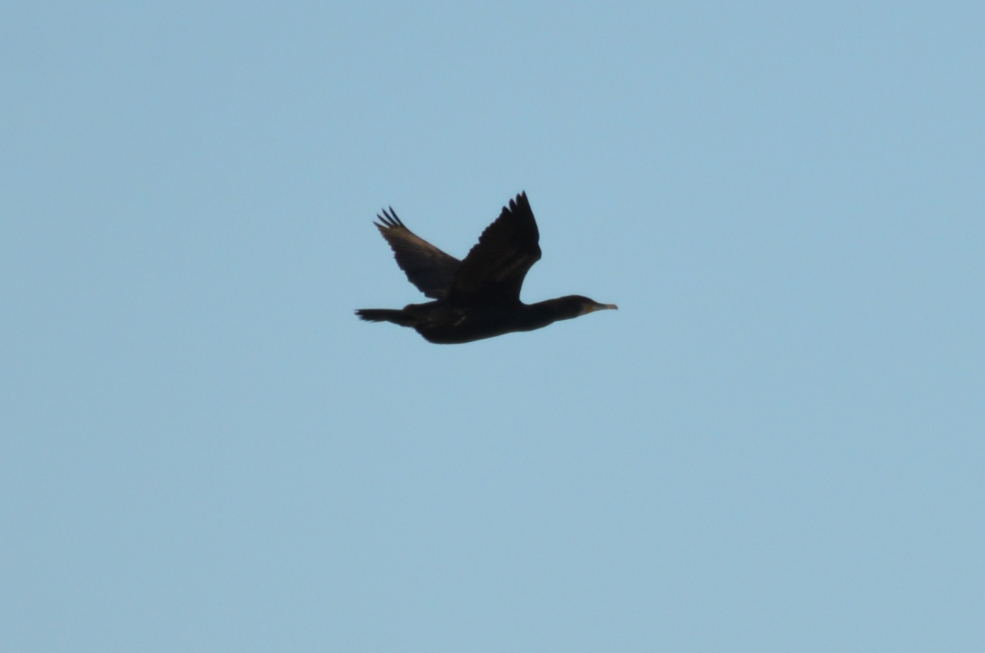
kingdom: Animalia
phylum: Chordata
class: Aves
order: Suliformes
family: Phalacrocoracidae
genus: Phalacrocorax
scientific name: Phalacrocorax carbo
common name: Great cormorant
